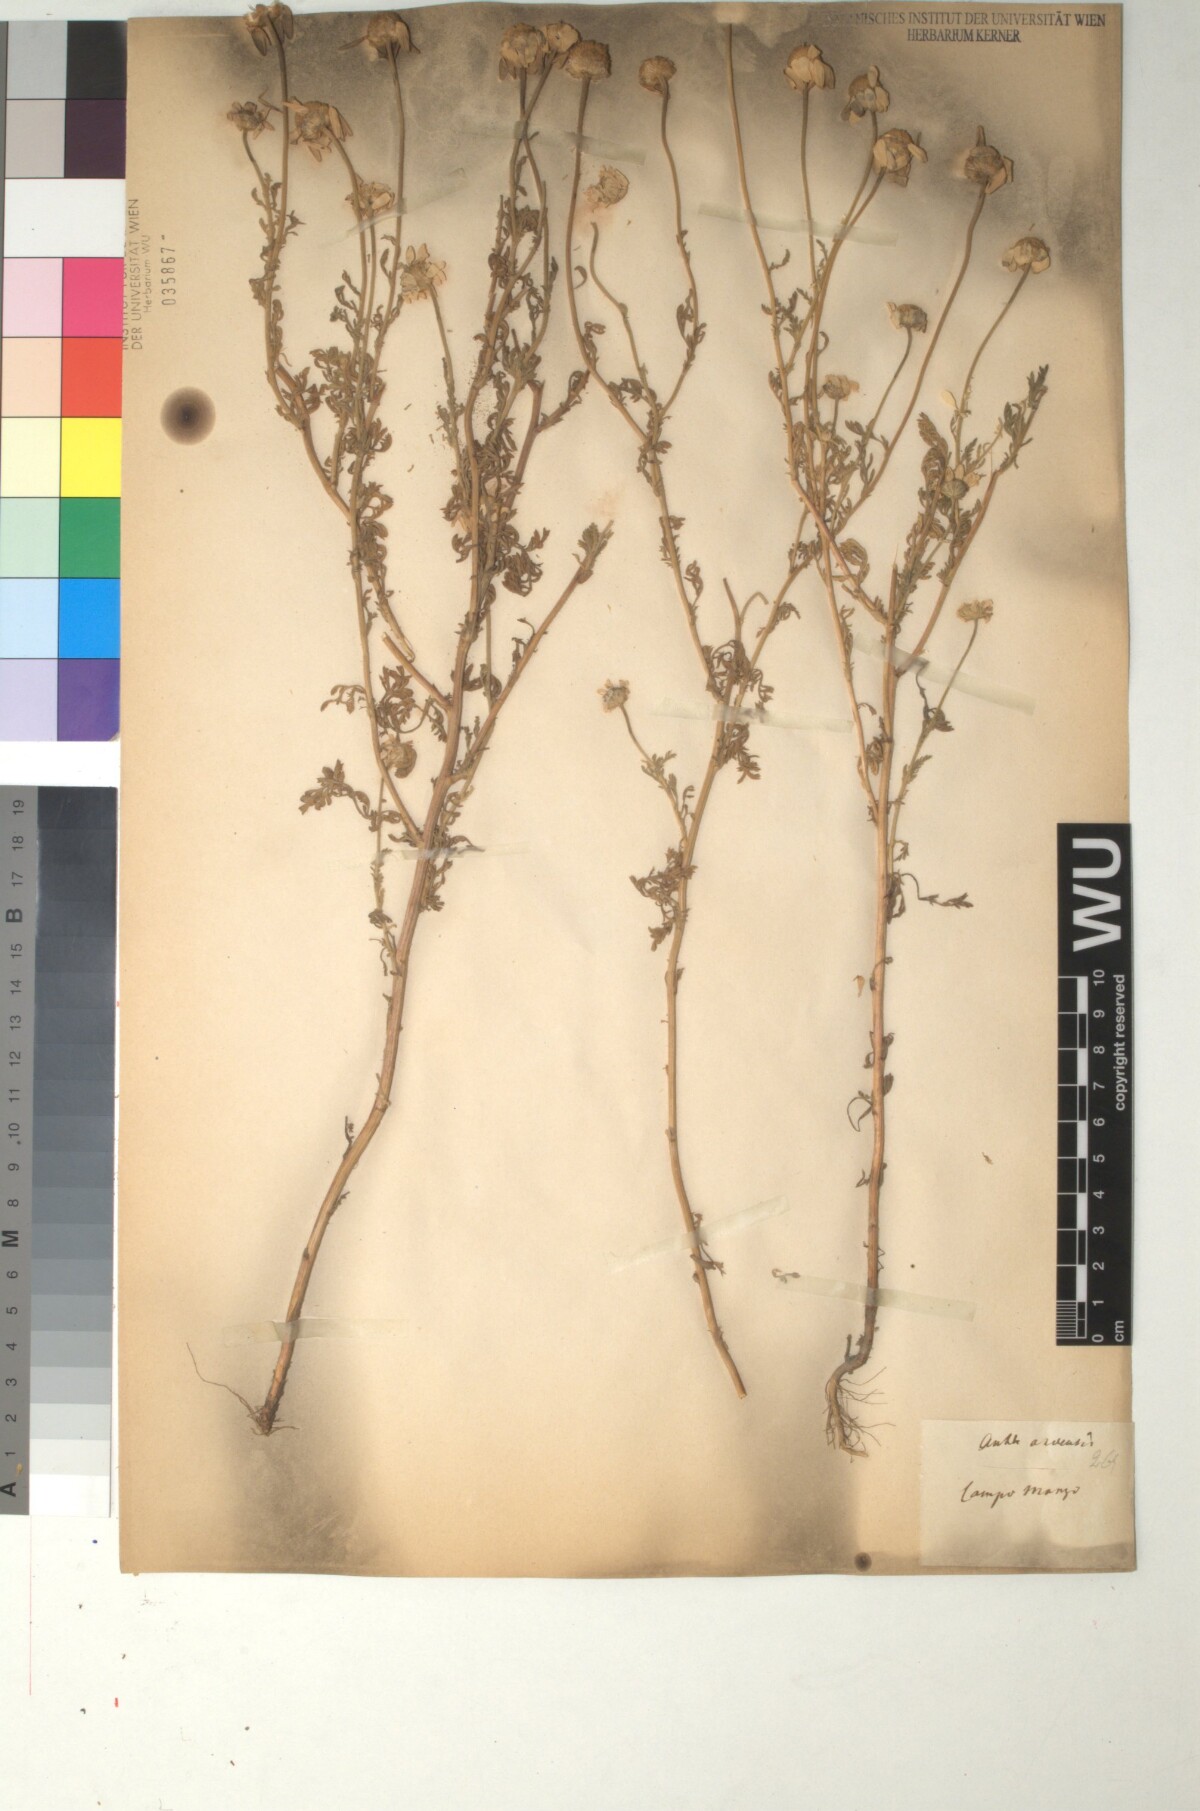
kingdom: Plantae
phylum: Tracheophyta
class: Magnoliopsida
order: Asterales
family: Asteraceae
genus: Anthemis
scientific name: Anthemis arvensis
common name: Corn chamomile
